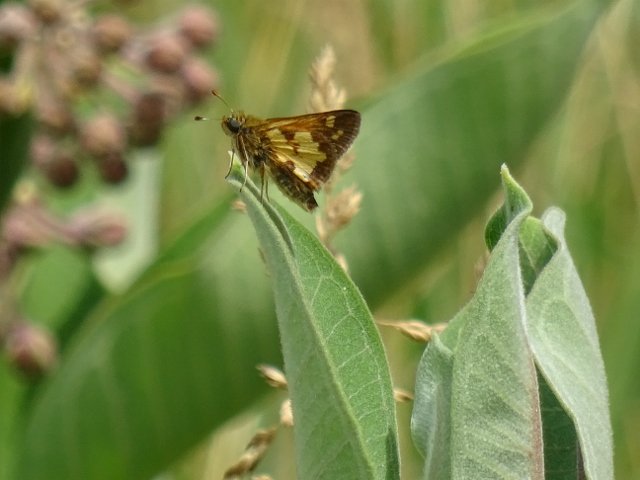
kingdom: Animalia
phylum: Arthropoda
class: Insecta
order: Lepidoptera
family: Hesperiidae
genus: Polites
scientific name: Polites coras
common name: Peck's Skipper
